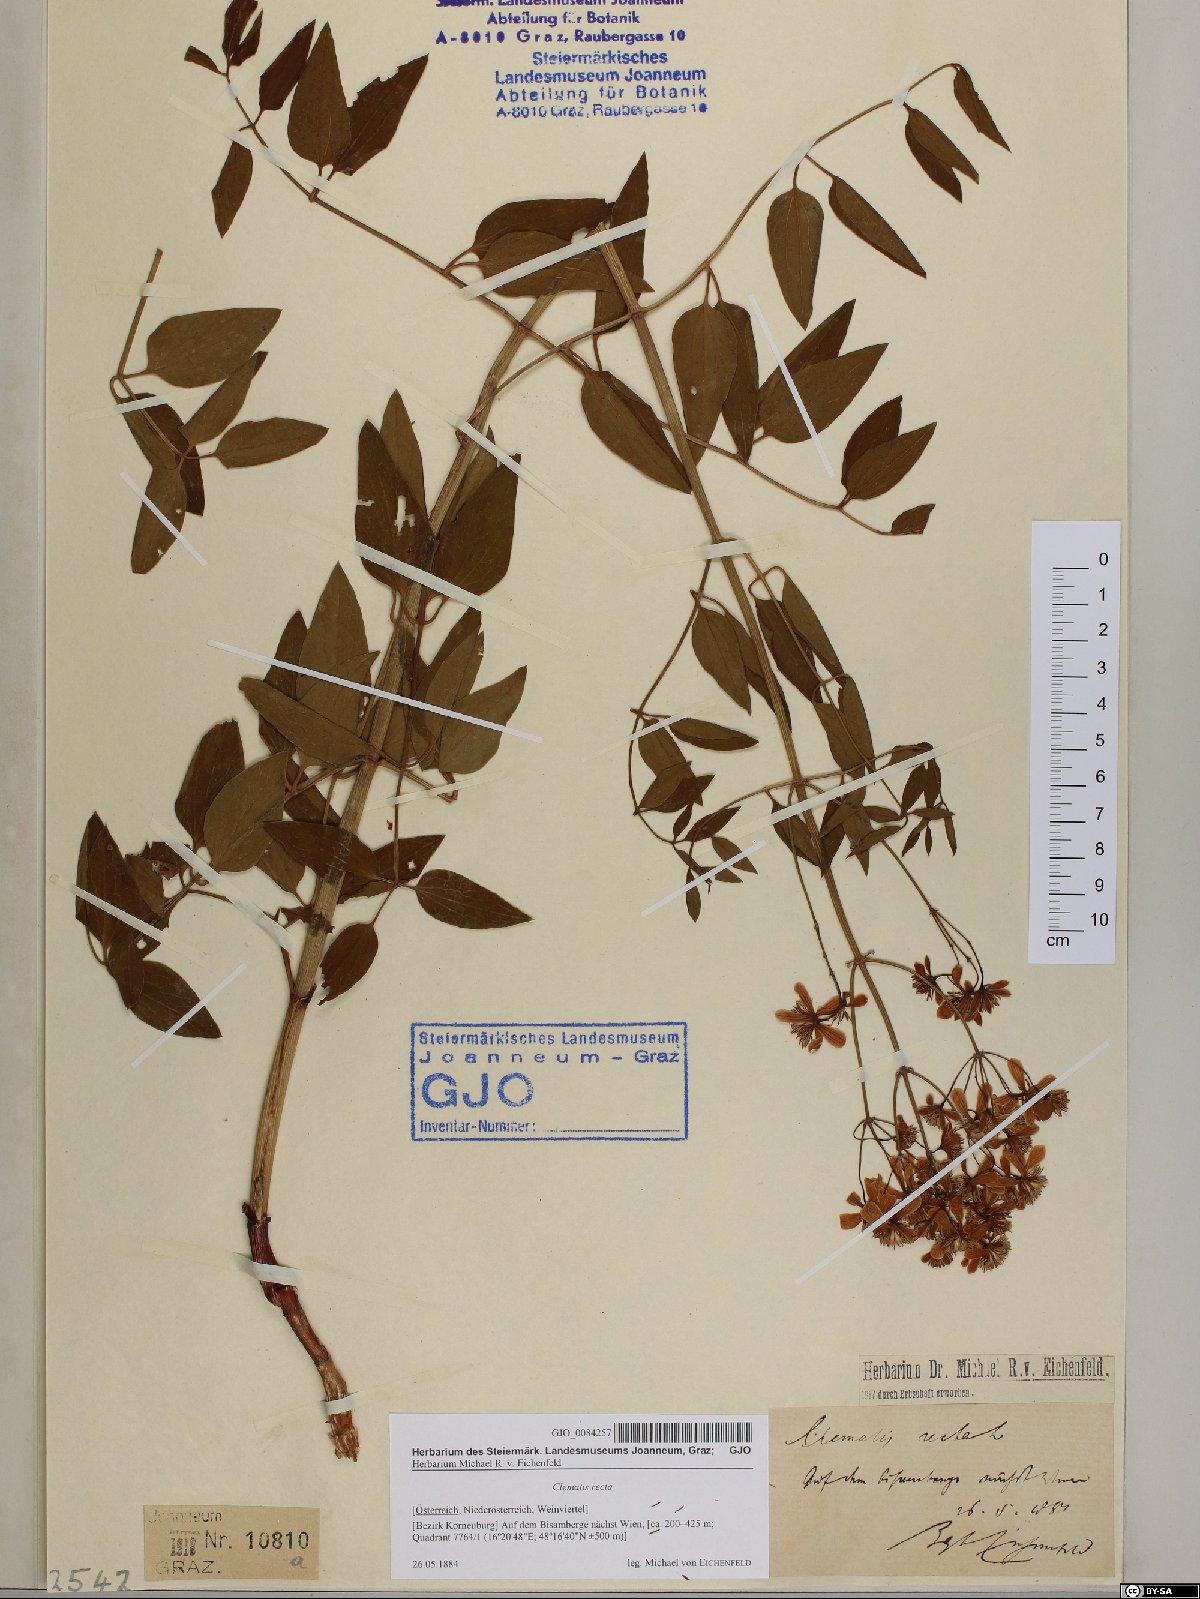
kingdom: Plantae
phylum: Tracheophyta
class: Magnoliopsida
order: Ranunculales
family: Ranunculaceae
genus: Clematis
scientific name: Clematis recta
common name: Ground clematis
